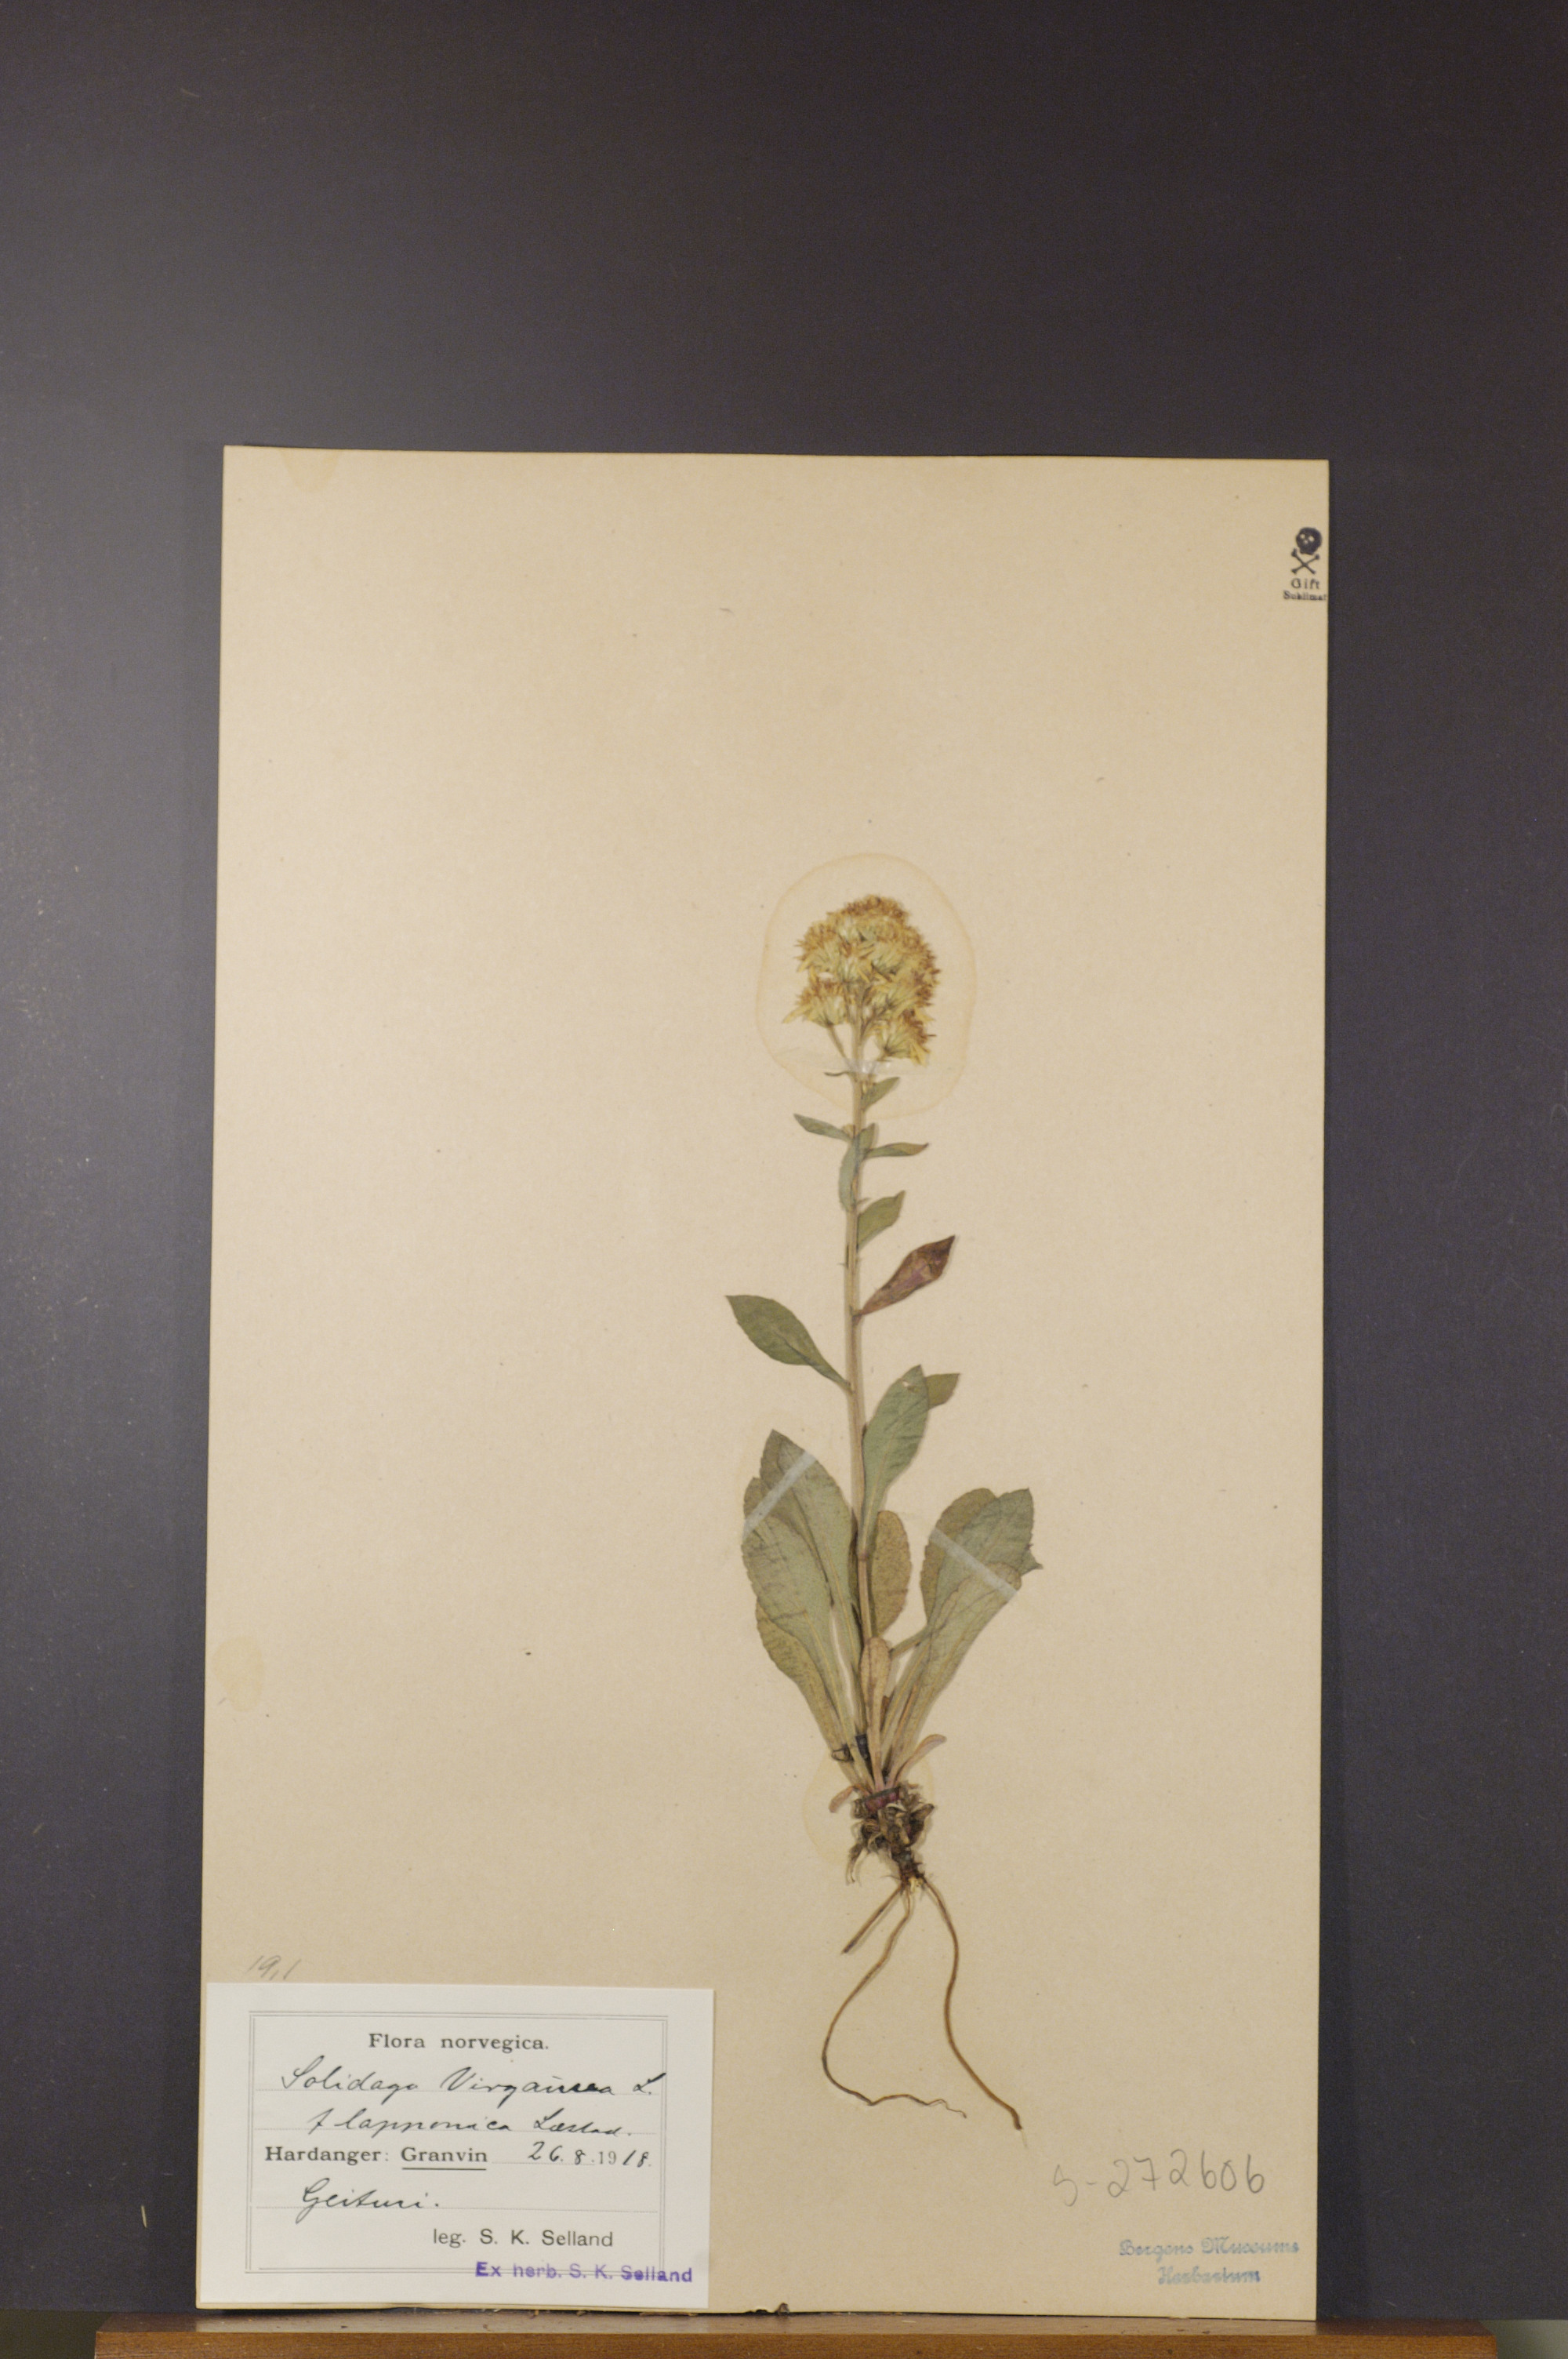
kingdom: Plantae
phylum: Tracheophyta
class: Magnoliopsida
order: Asterales
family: Asteraceae
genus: Solidago
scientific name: Solidago virgaurea
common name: Goldenrod
